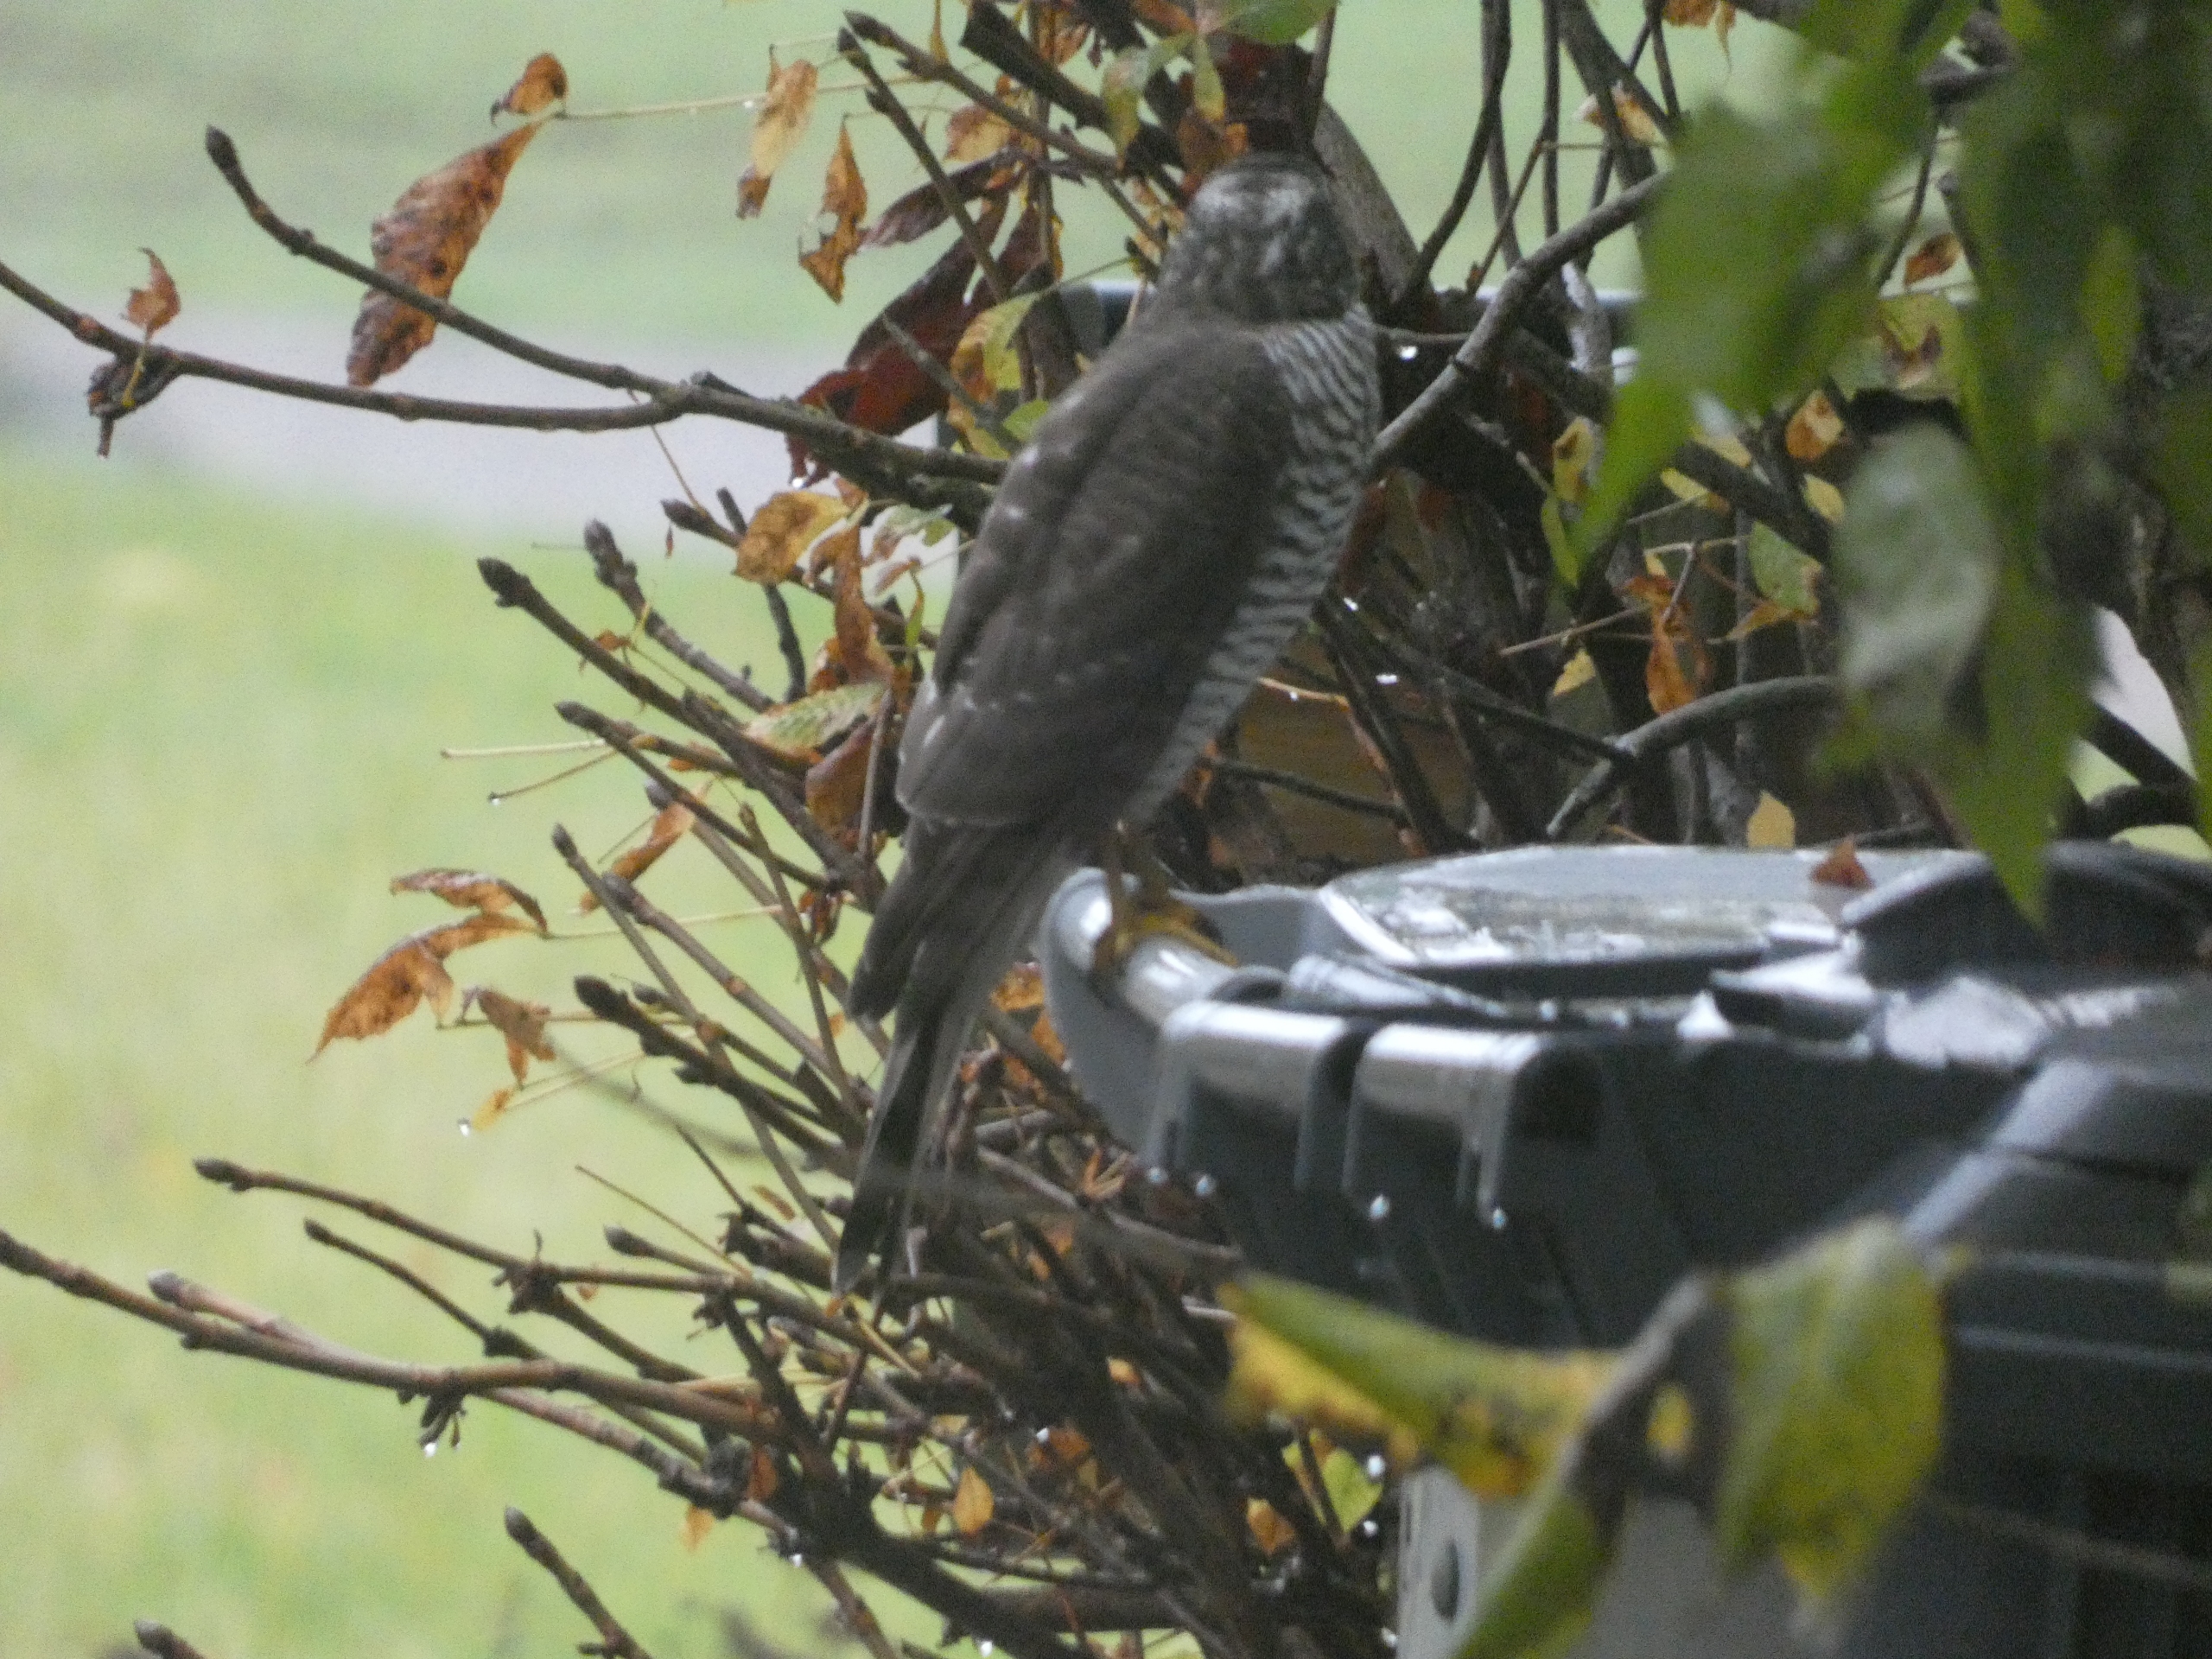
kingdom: Animalia
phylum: Chordata
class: Aves
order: Accipitriformes
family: Accipitridae
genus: Accipiter
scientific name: Accipiter nisus
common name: Spurvehøg
